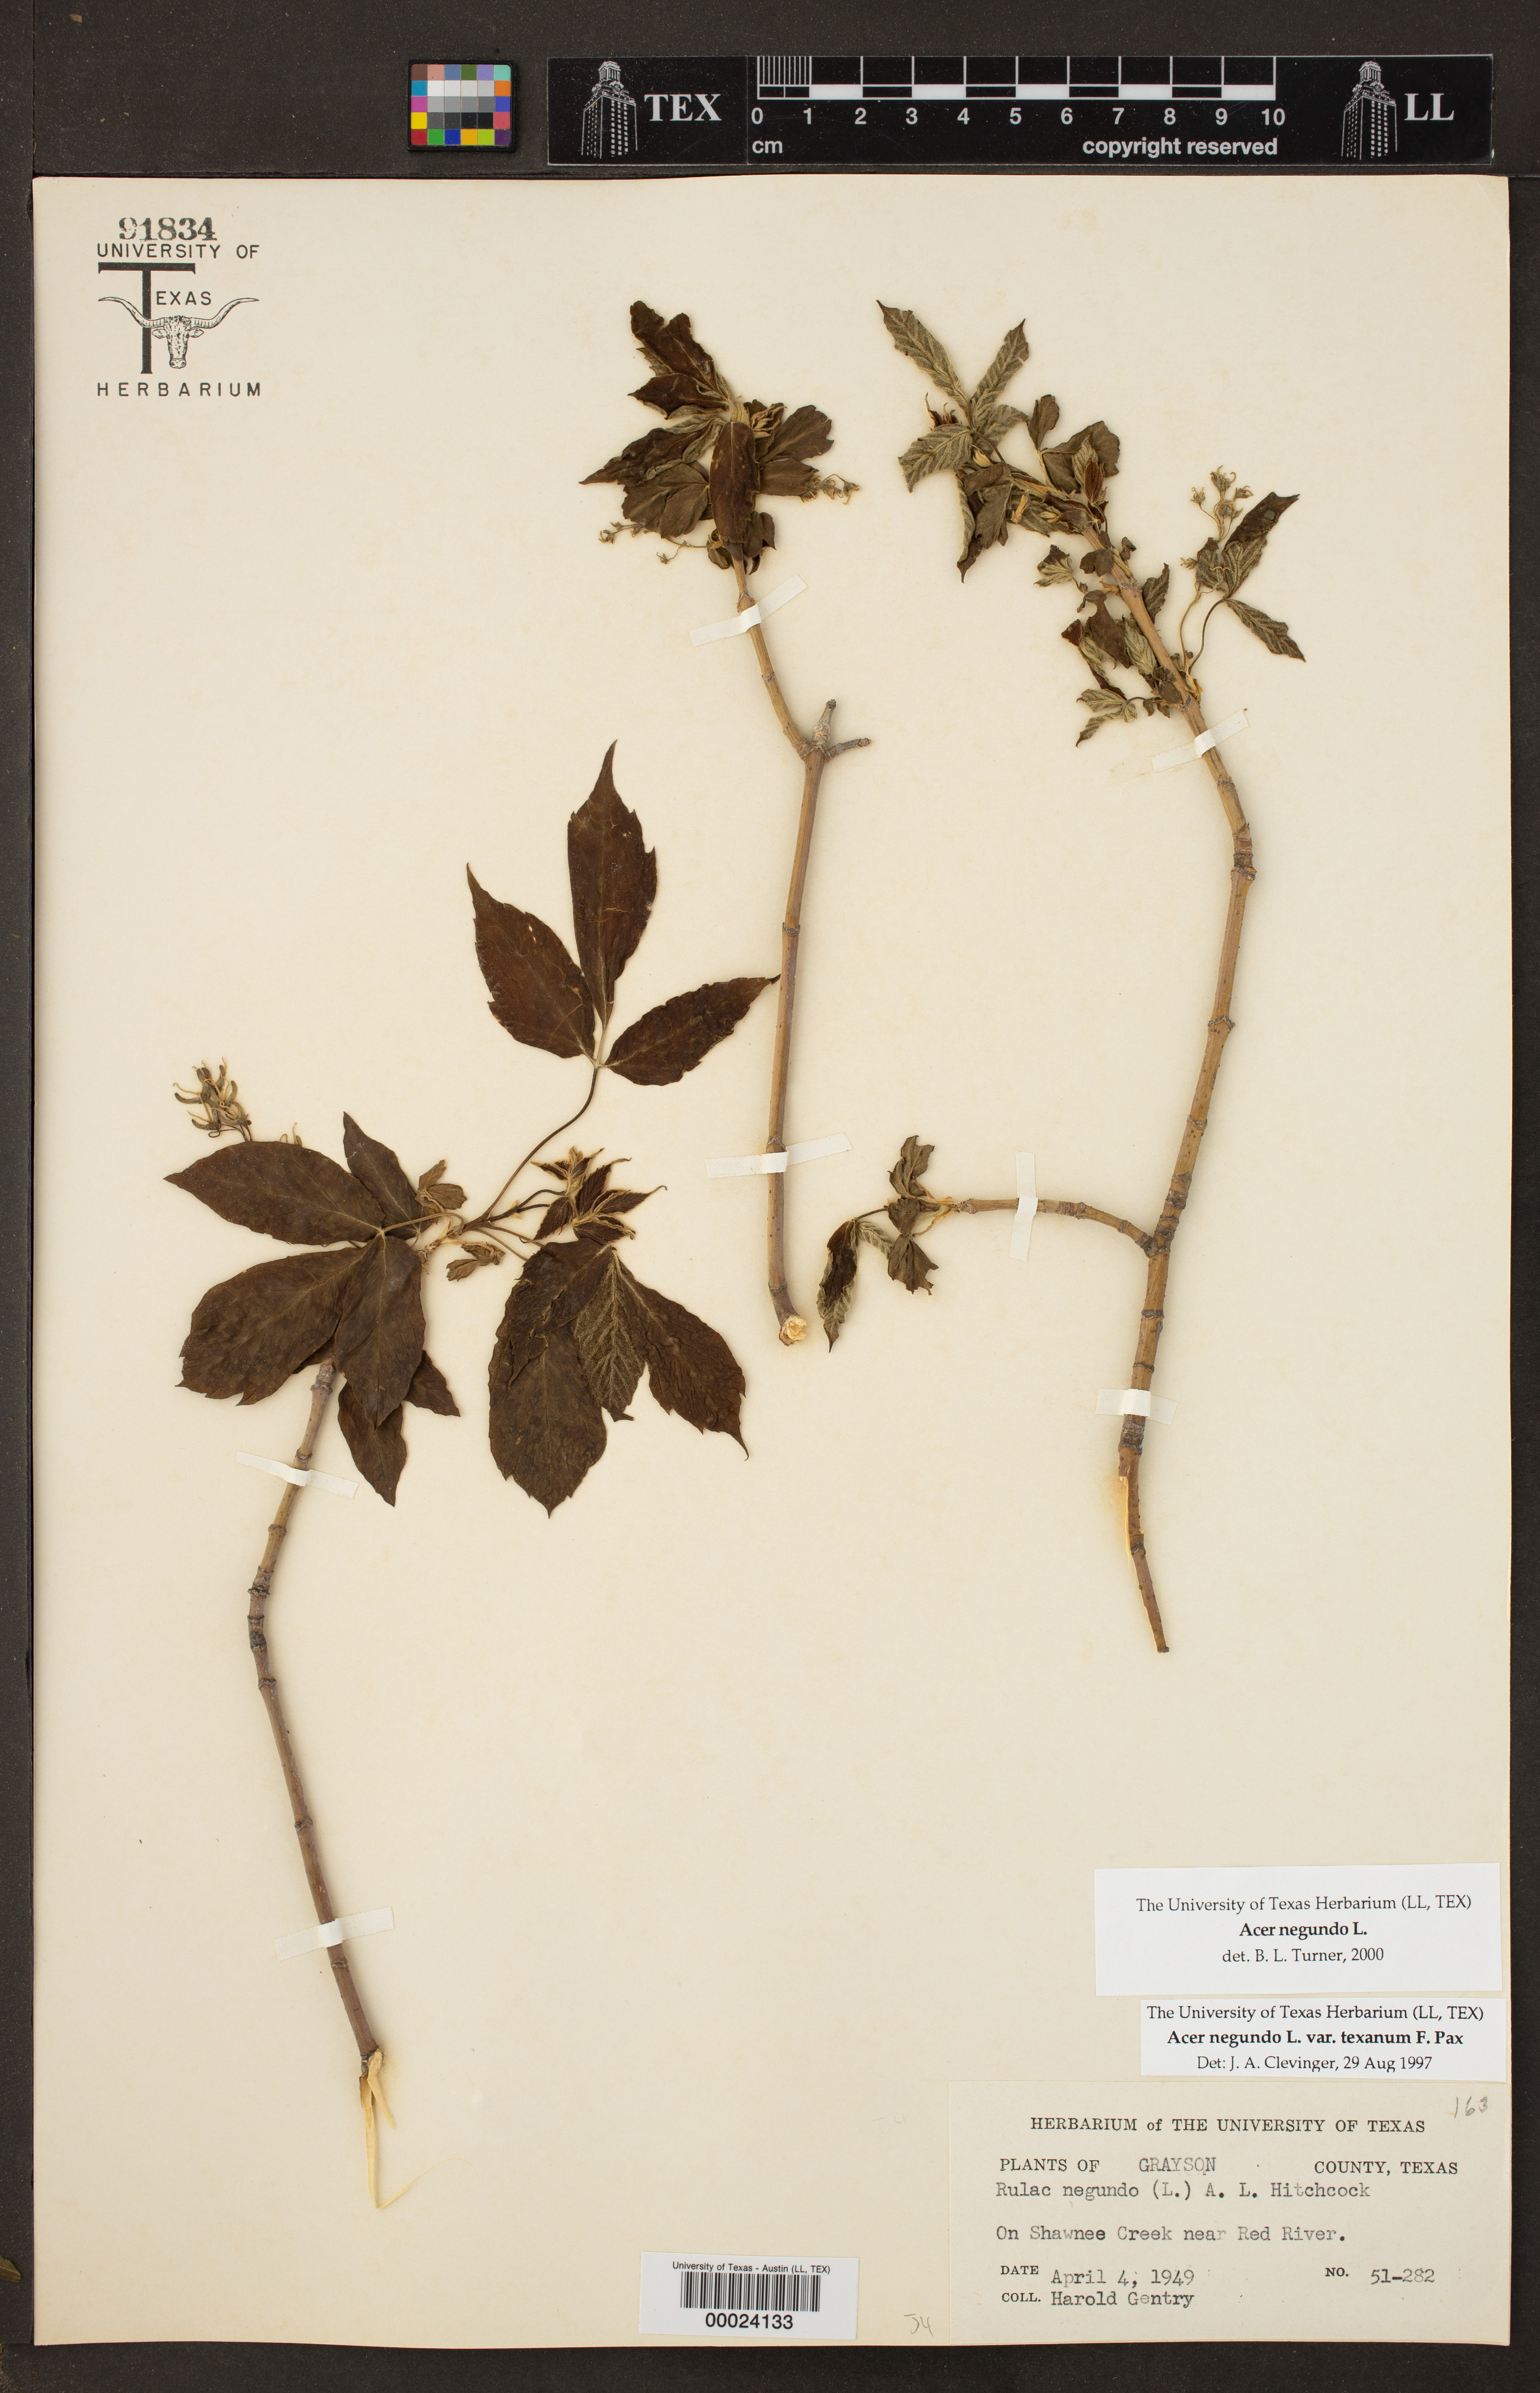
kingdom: Plantae
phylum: Tracheophyta
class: Magnoliopsida
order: Sapindales
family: Sapindaceae
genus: Acer
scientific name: Acer negundo
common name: Ashleaf maple
